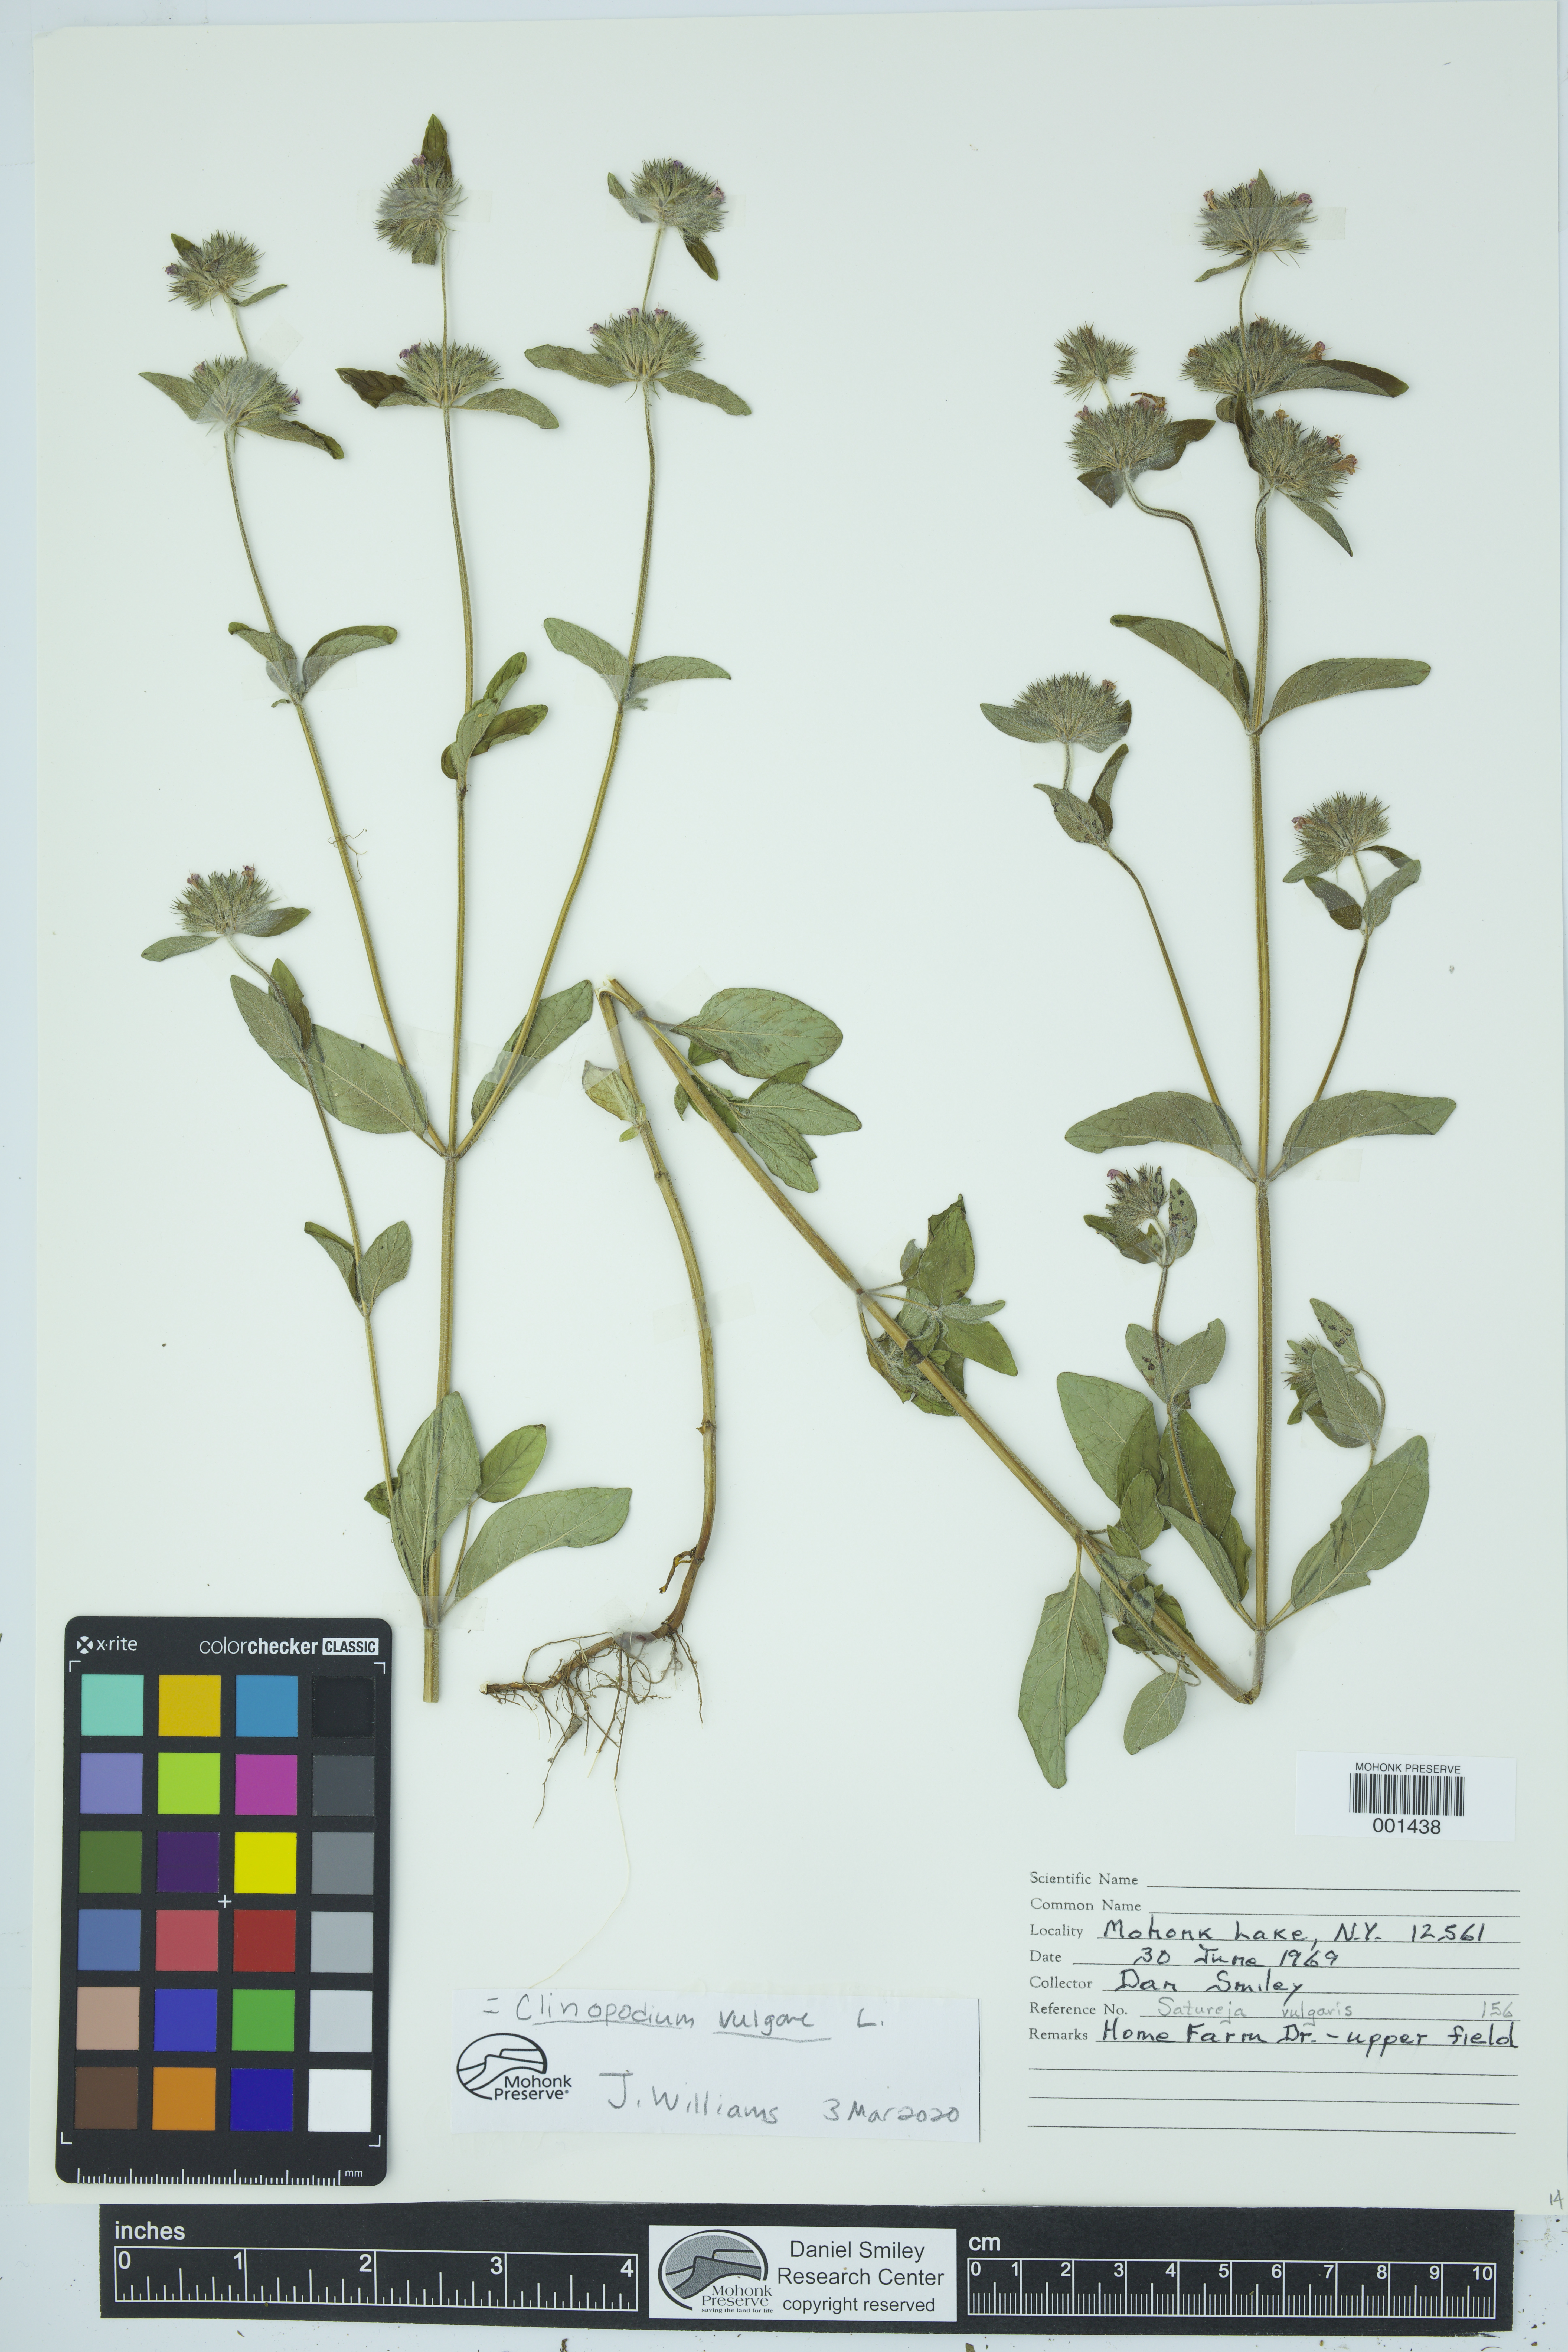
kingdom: Plantae
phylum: Tracheophyta
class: Magnoliopsida
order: Lamiales
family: Lamiaceae
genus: Clinopodium
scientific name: Clinopodium vulgare
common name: Wild basil
